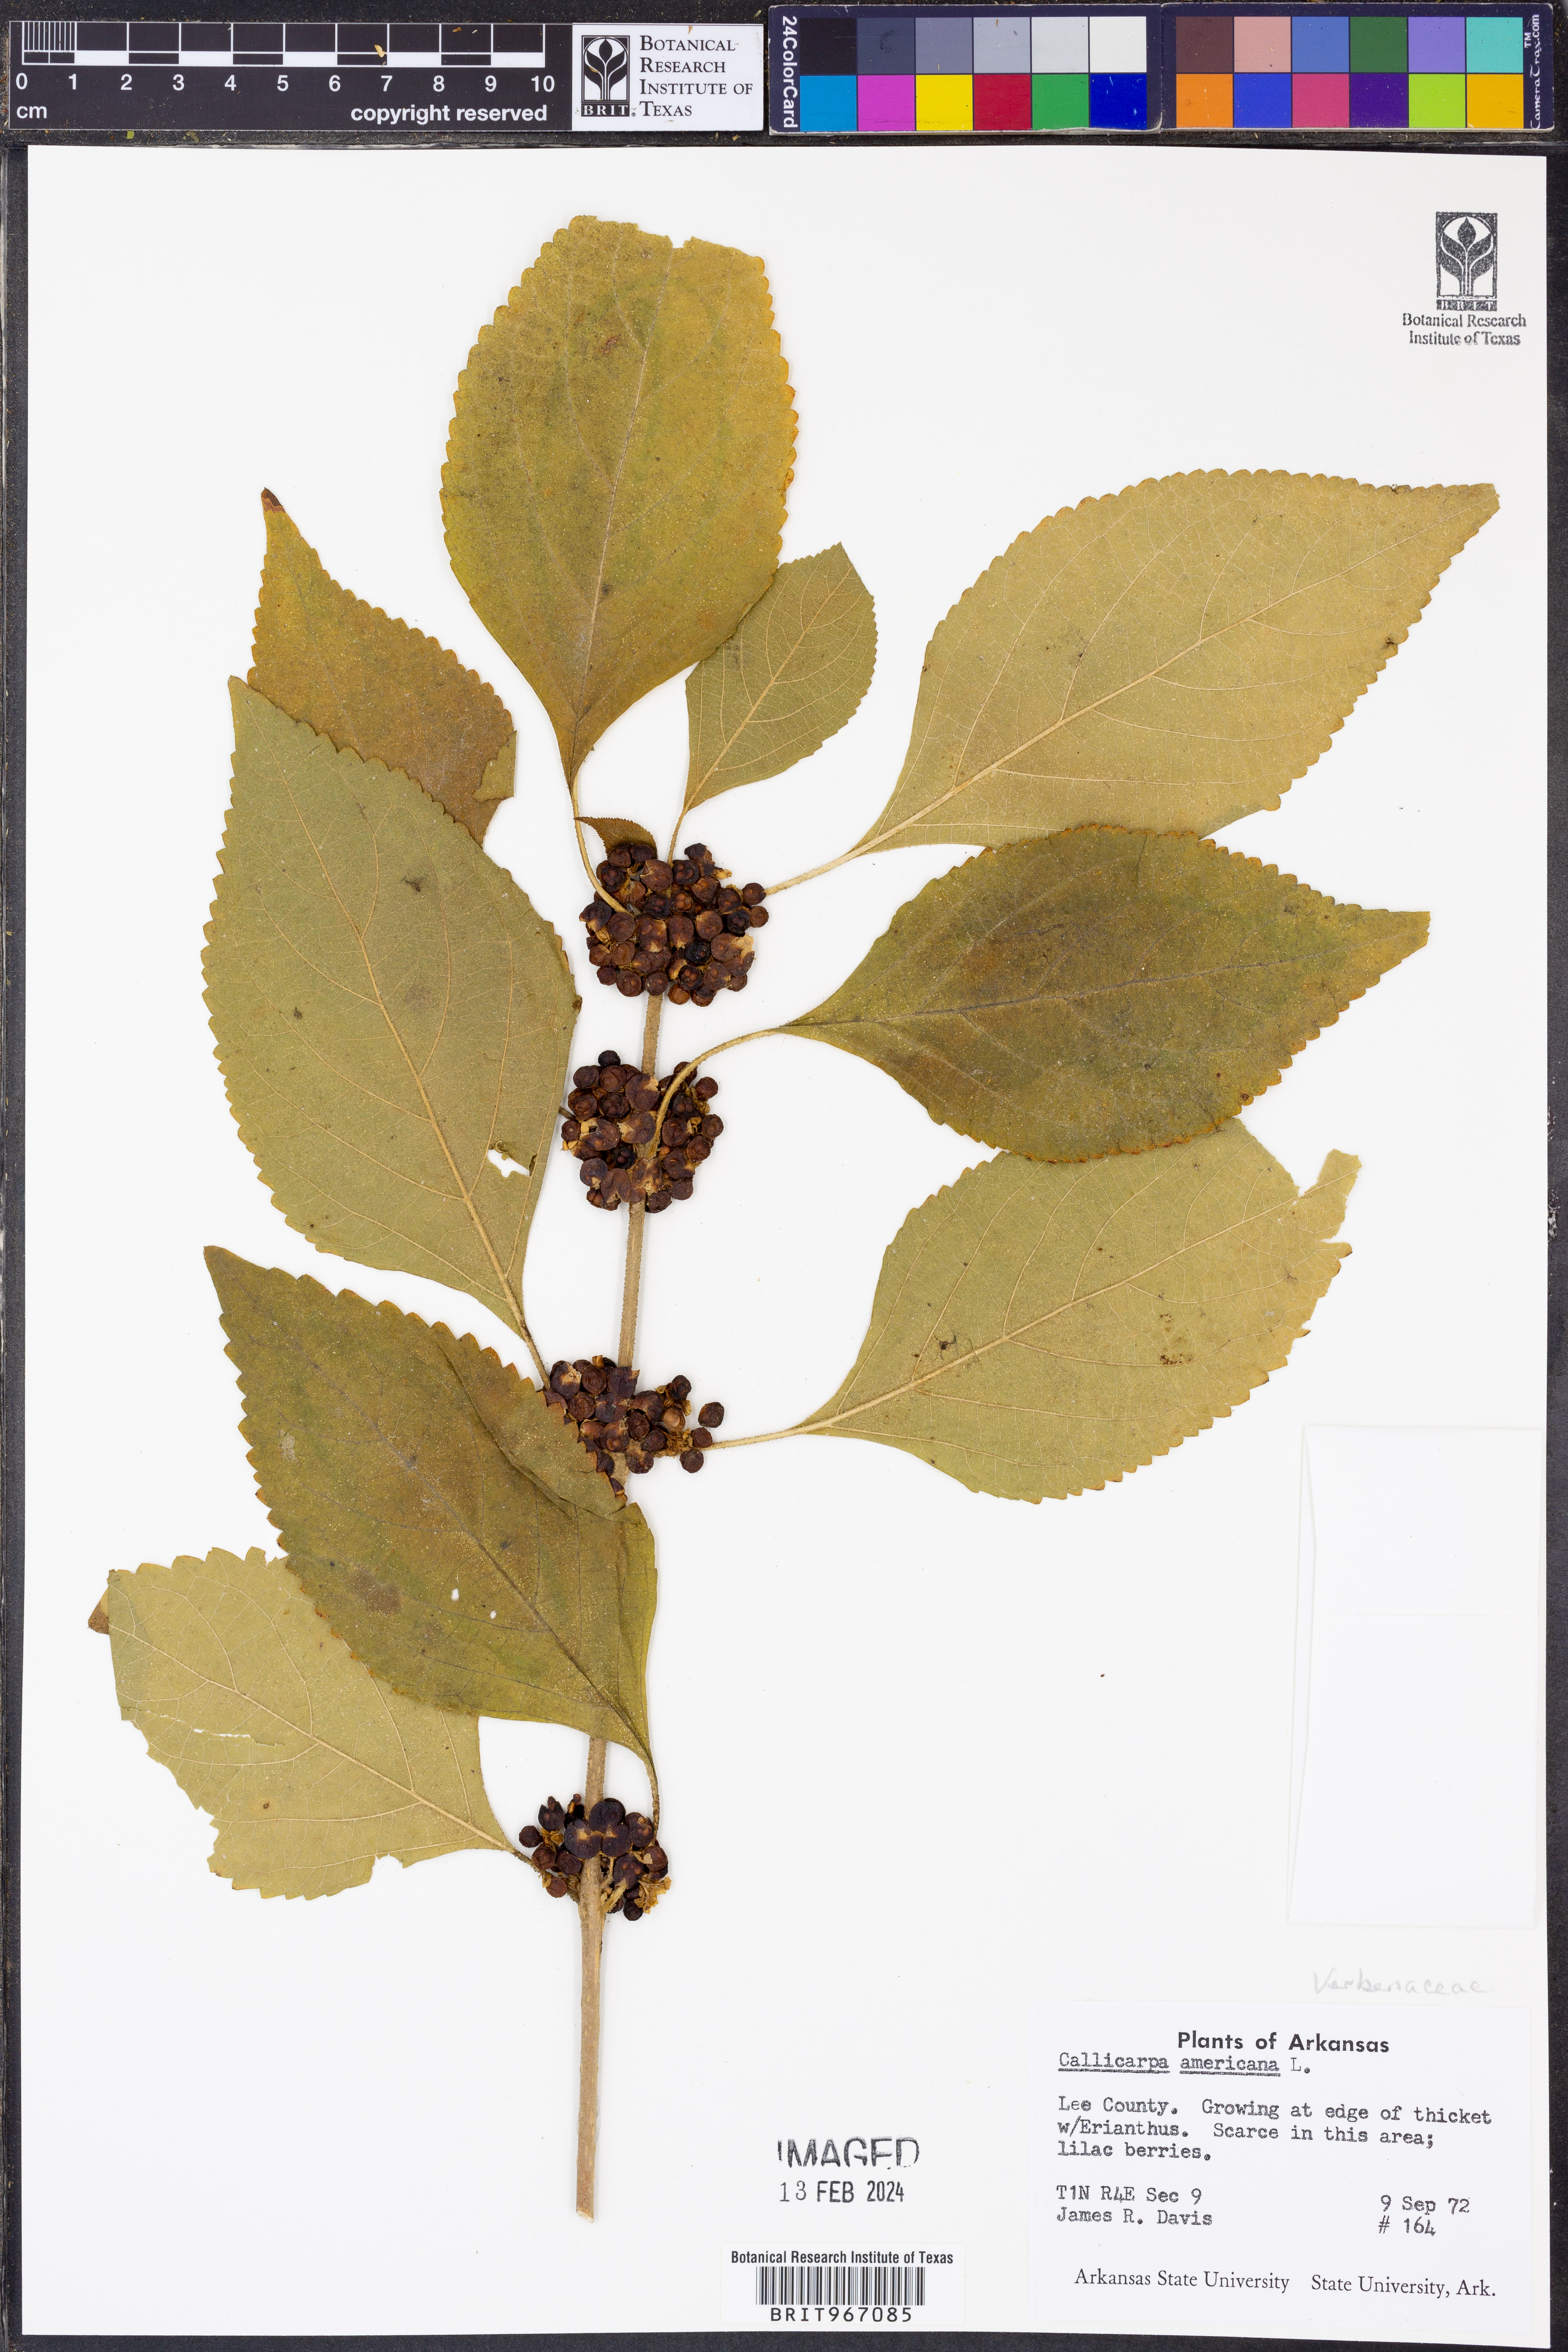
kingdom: Plantae
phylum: Tracheophyta
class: Magnoliopsida
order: Lamiales
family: Lamiaceae
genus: Callicarpa
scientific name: Callicarpa americana
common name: American beautyberry
